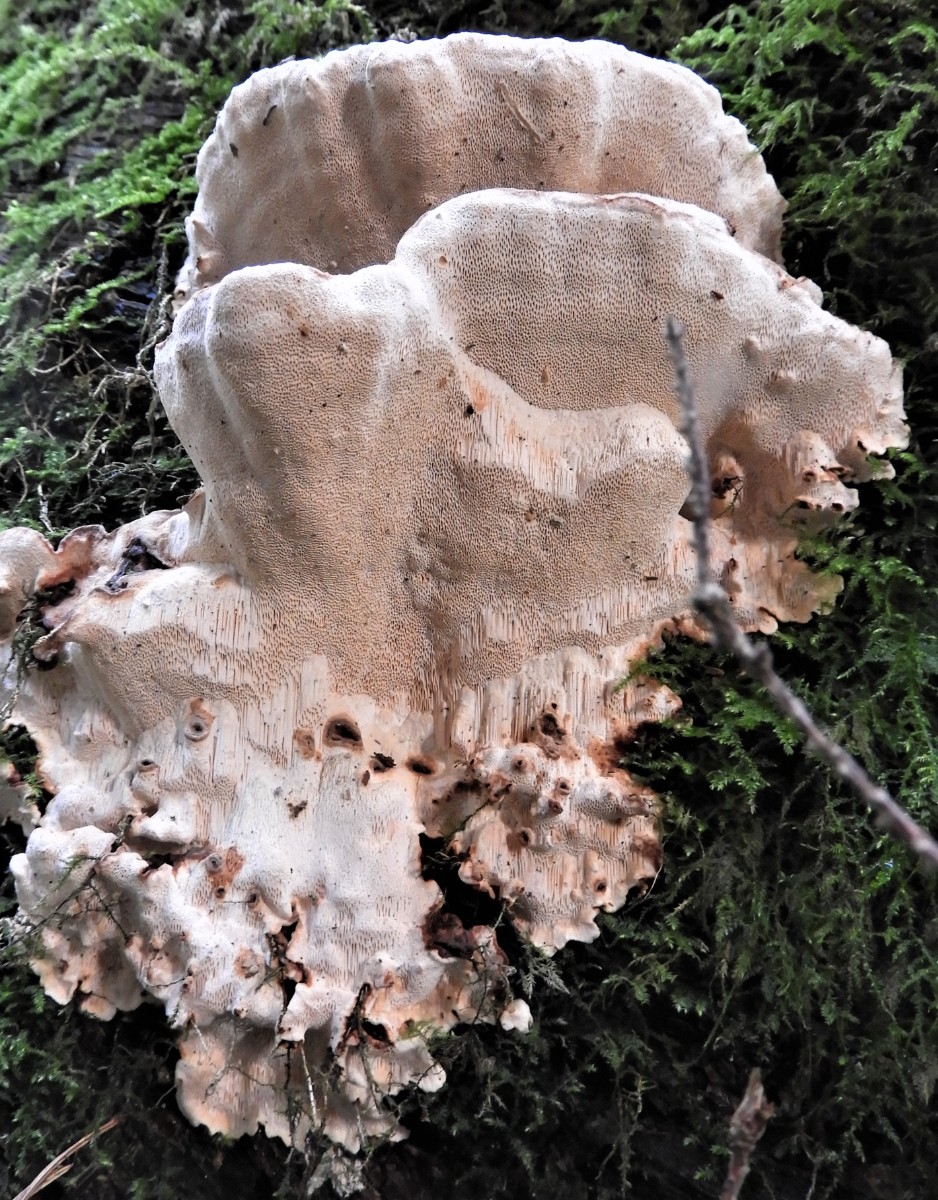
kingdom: Fungi
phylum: Basidiomycota
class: Agaricomycetes
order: Russulales
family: Bondarzewiaceae
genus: Heterobasidion
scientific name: Heterobasidion annosum
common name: almindelig rodfordærver
